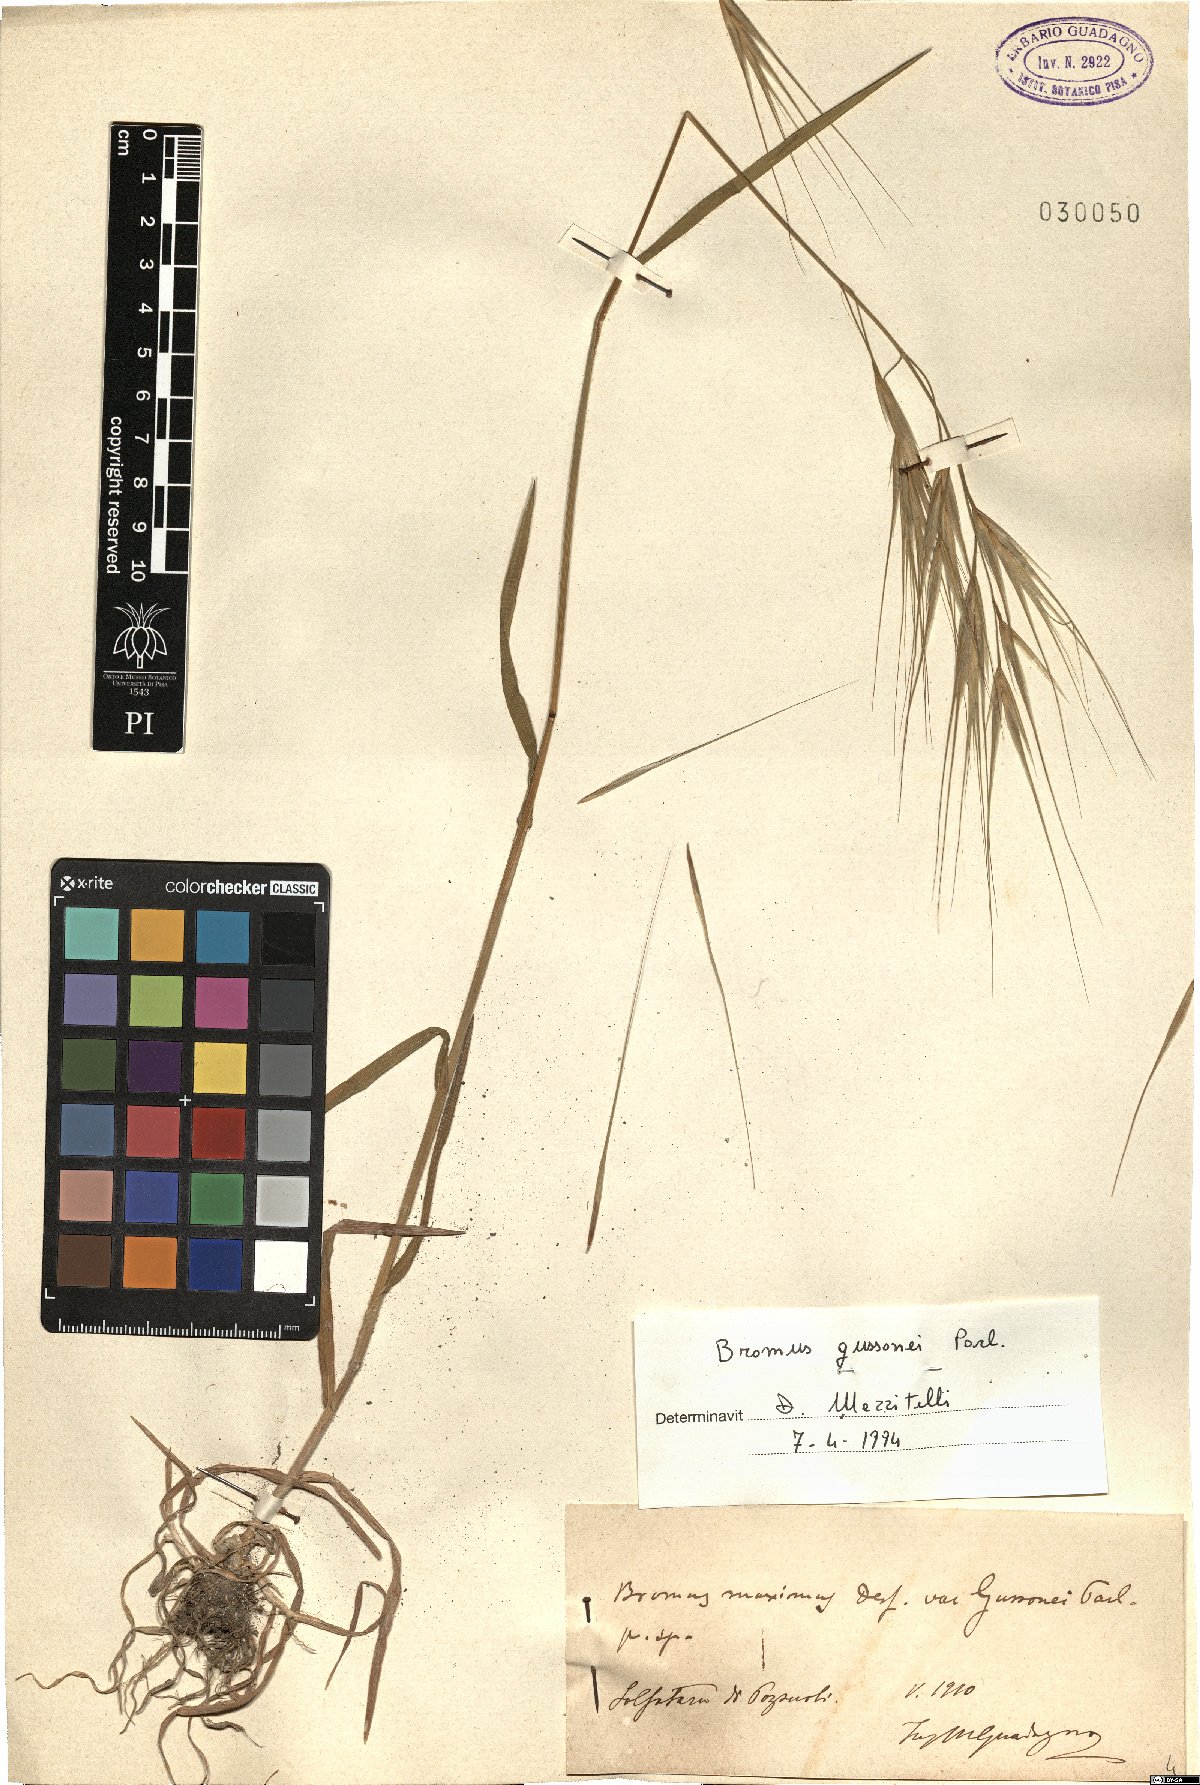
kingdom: Plantae
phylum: Tracheophyta
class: Liliopsida
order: Poales
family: Poaceae
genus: Bromus
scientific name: Bromus diandrus
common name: Ripgut brome
